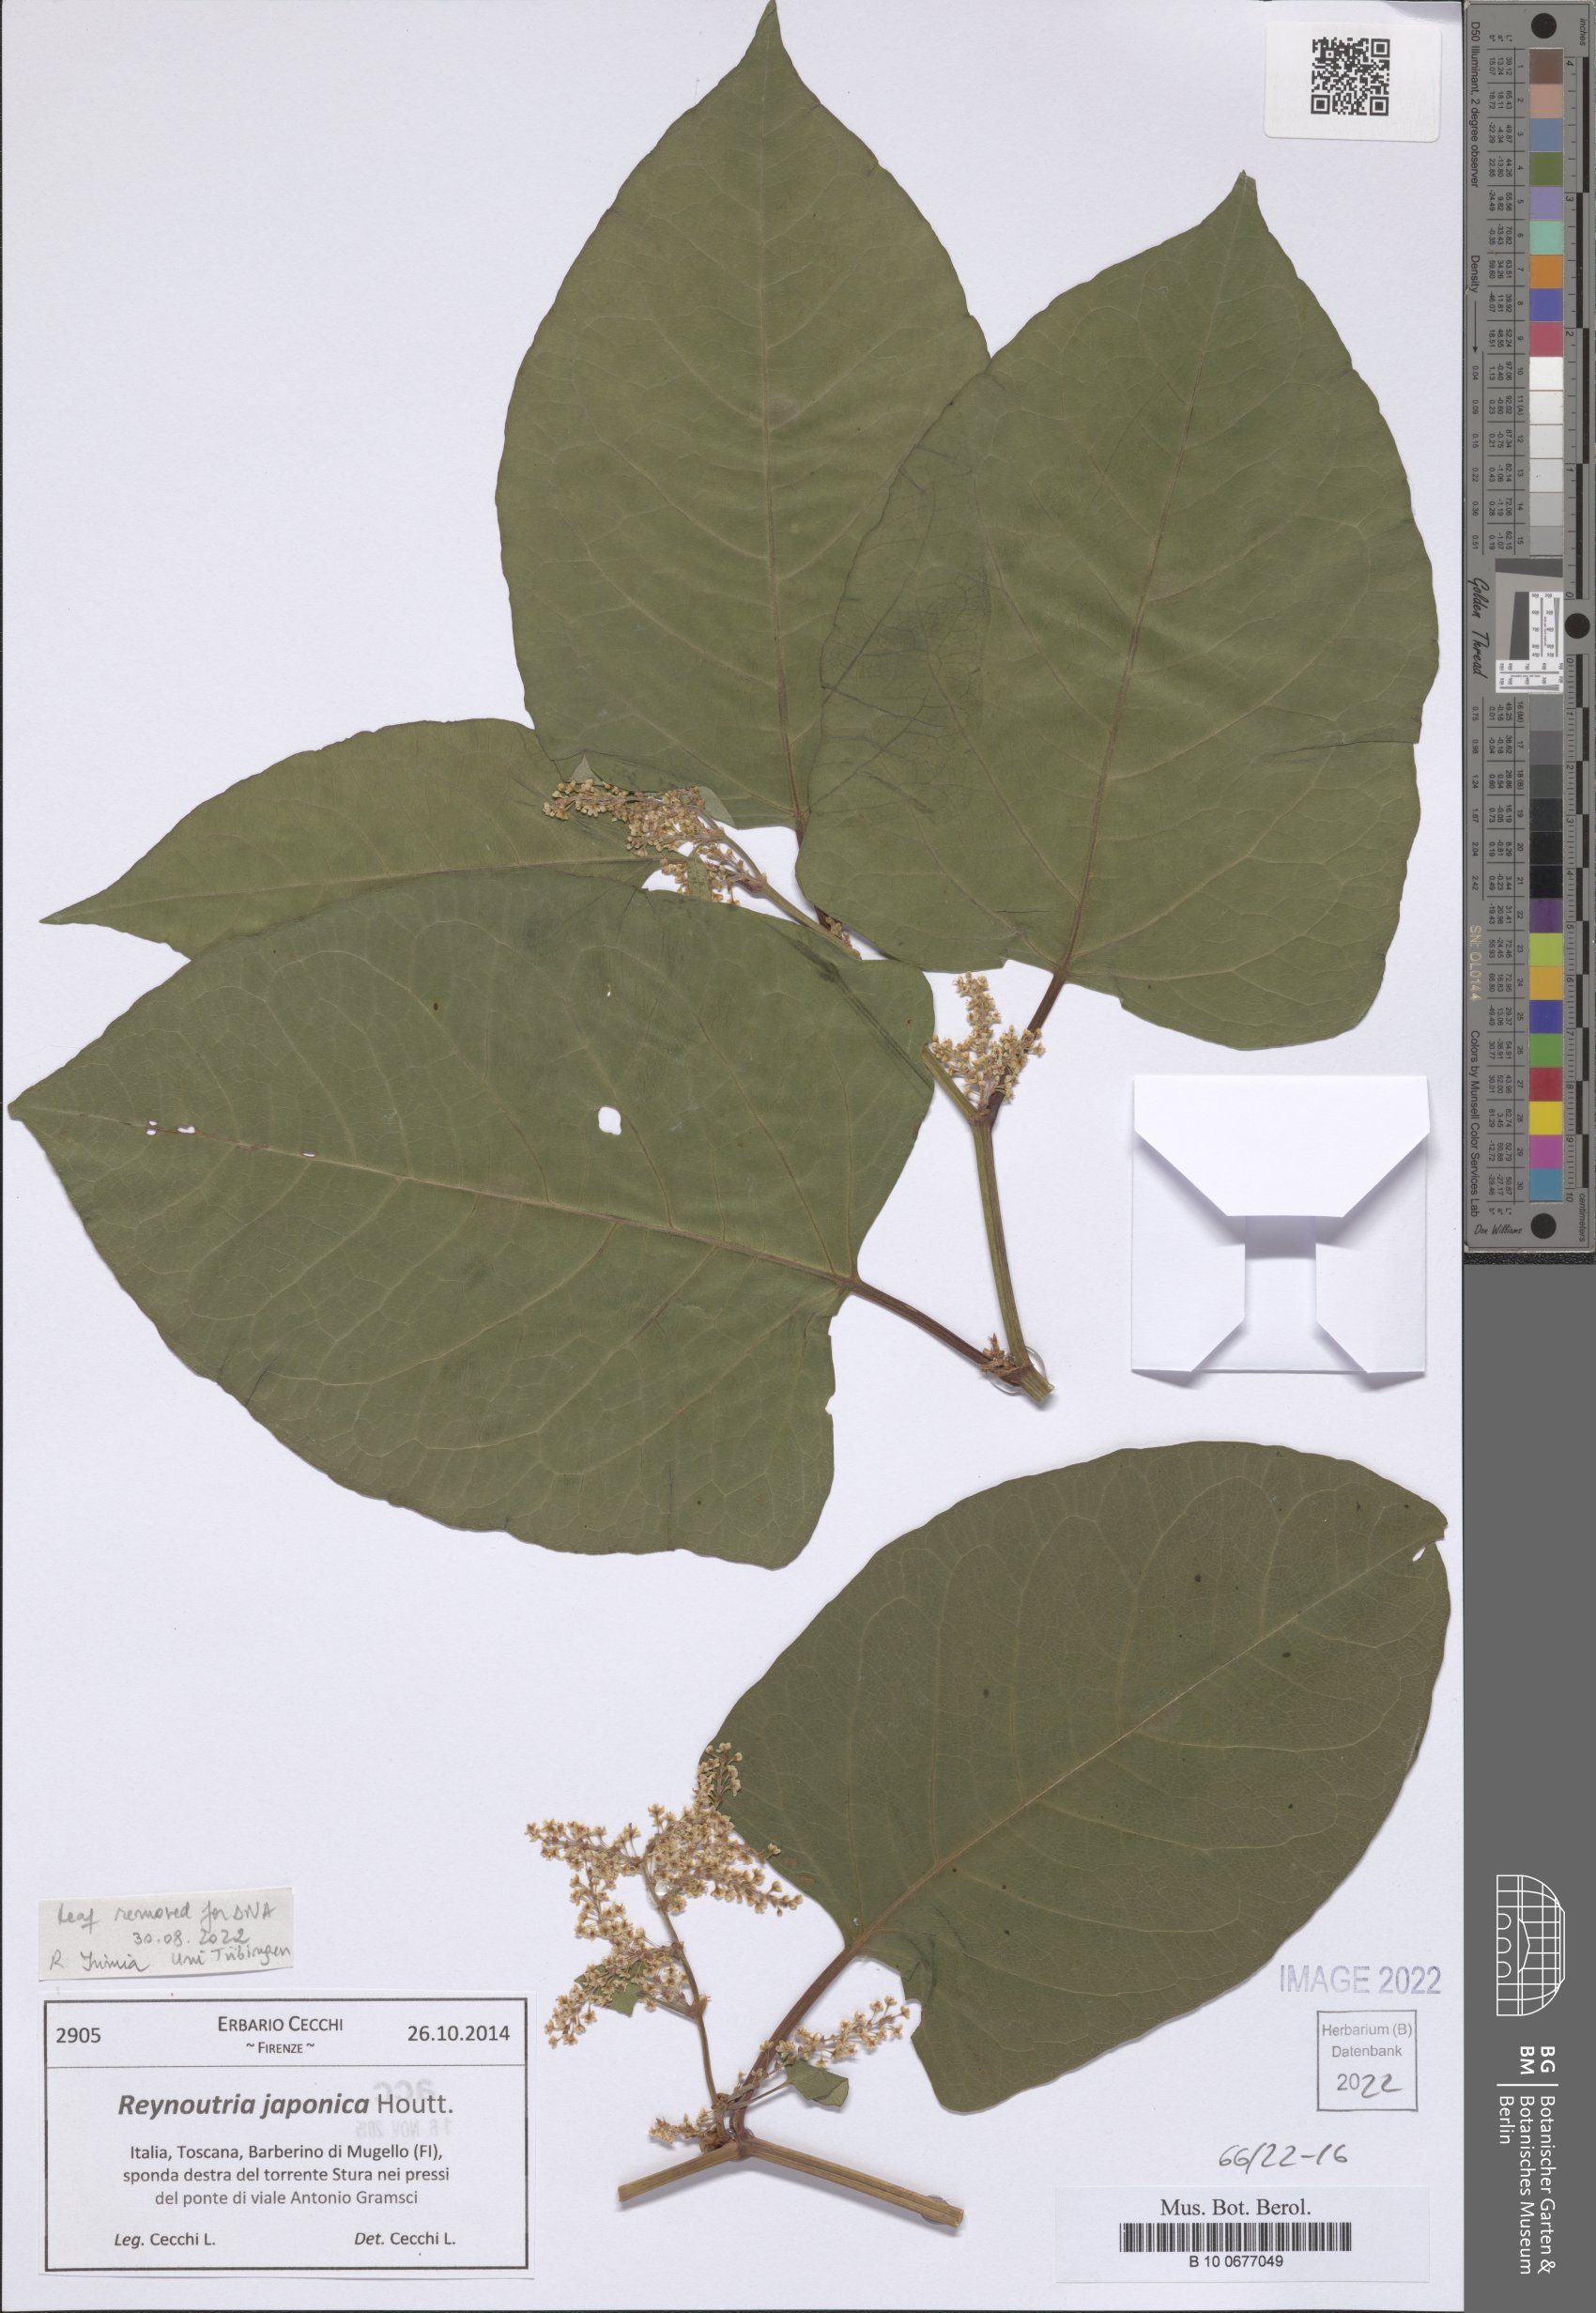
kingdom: Plantae
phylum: Tracheophyta
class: Magnoliopsida
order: Caryophyllales
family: Polygonaceae
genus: Reynoutria
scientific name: Reynoutria japonica
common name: Japanese knotweed
